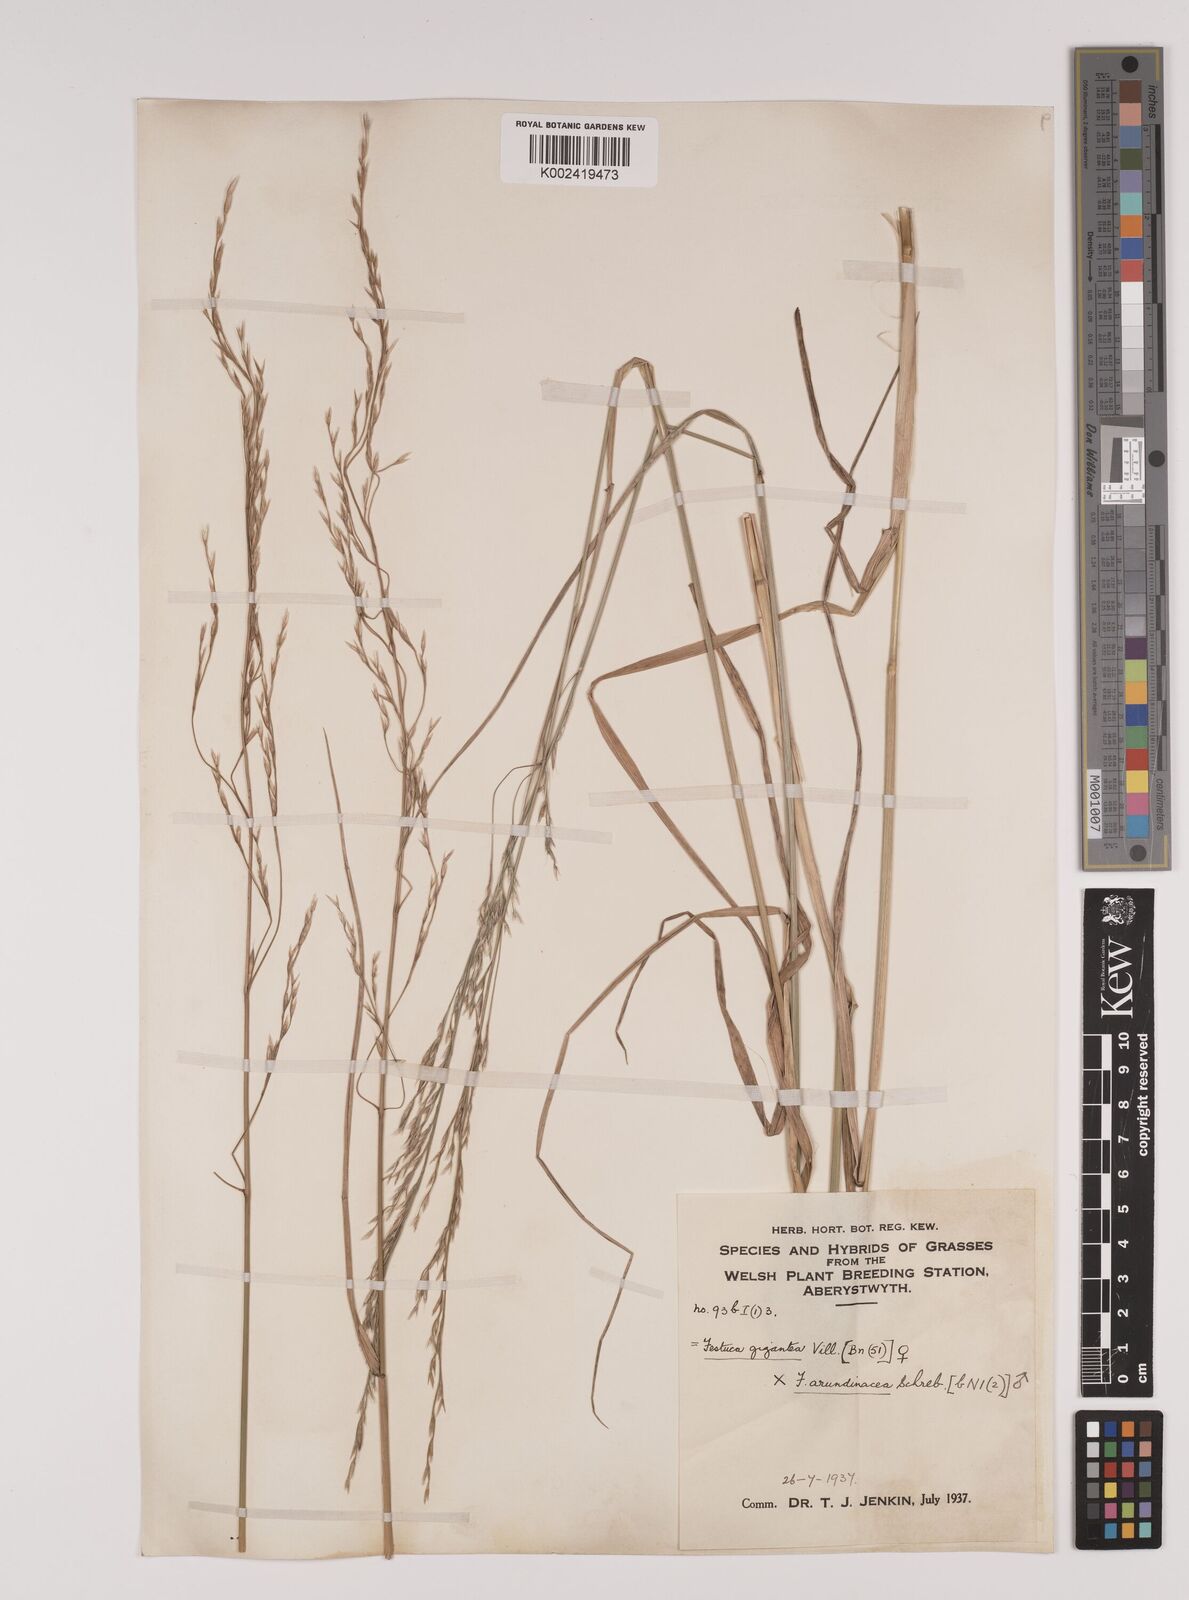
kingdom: Plantae
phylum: Tracheophyta
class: Liliopsida
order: Poales
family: Poaceae
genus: Lolium
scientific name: Lolium giganteum
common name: Giant fescue
